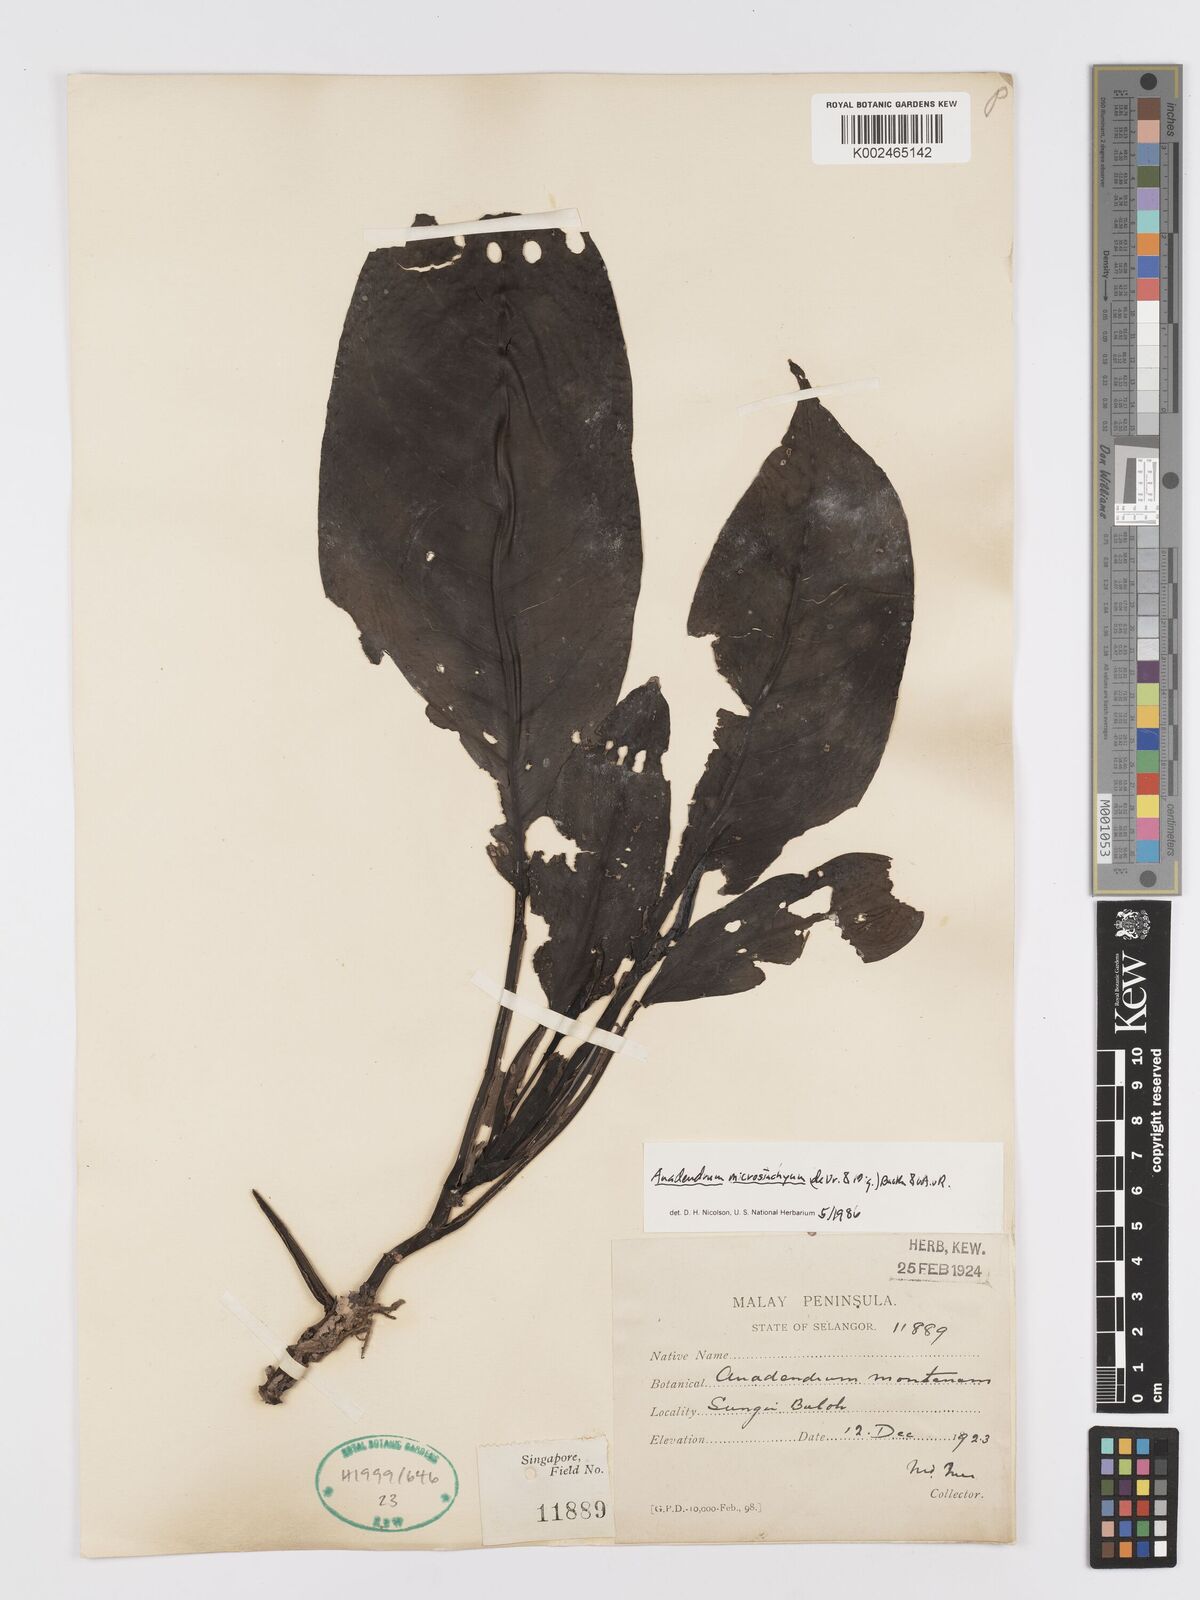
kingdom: Plantae
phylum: Tracheophyta
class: Liliopsida
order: Alismatales
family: Araceae
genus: Anadendrum
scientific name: Anadendrum microstachyum
